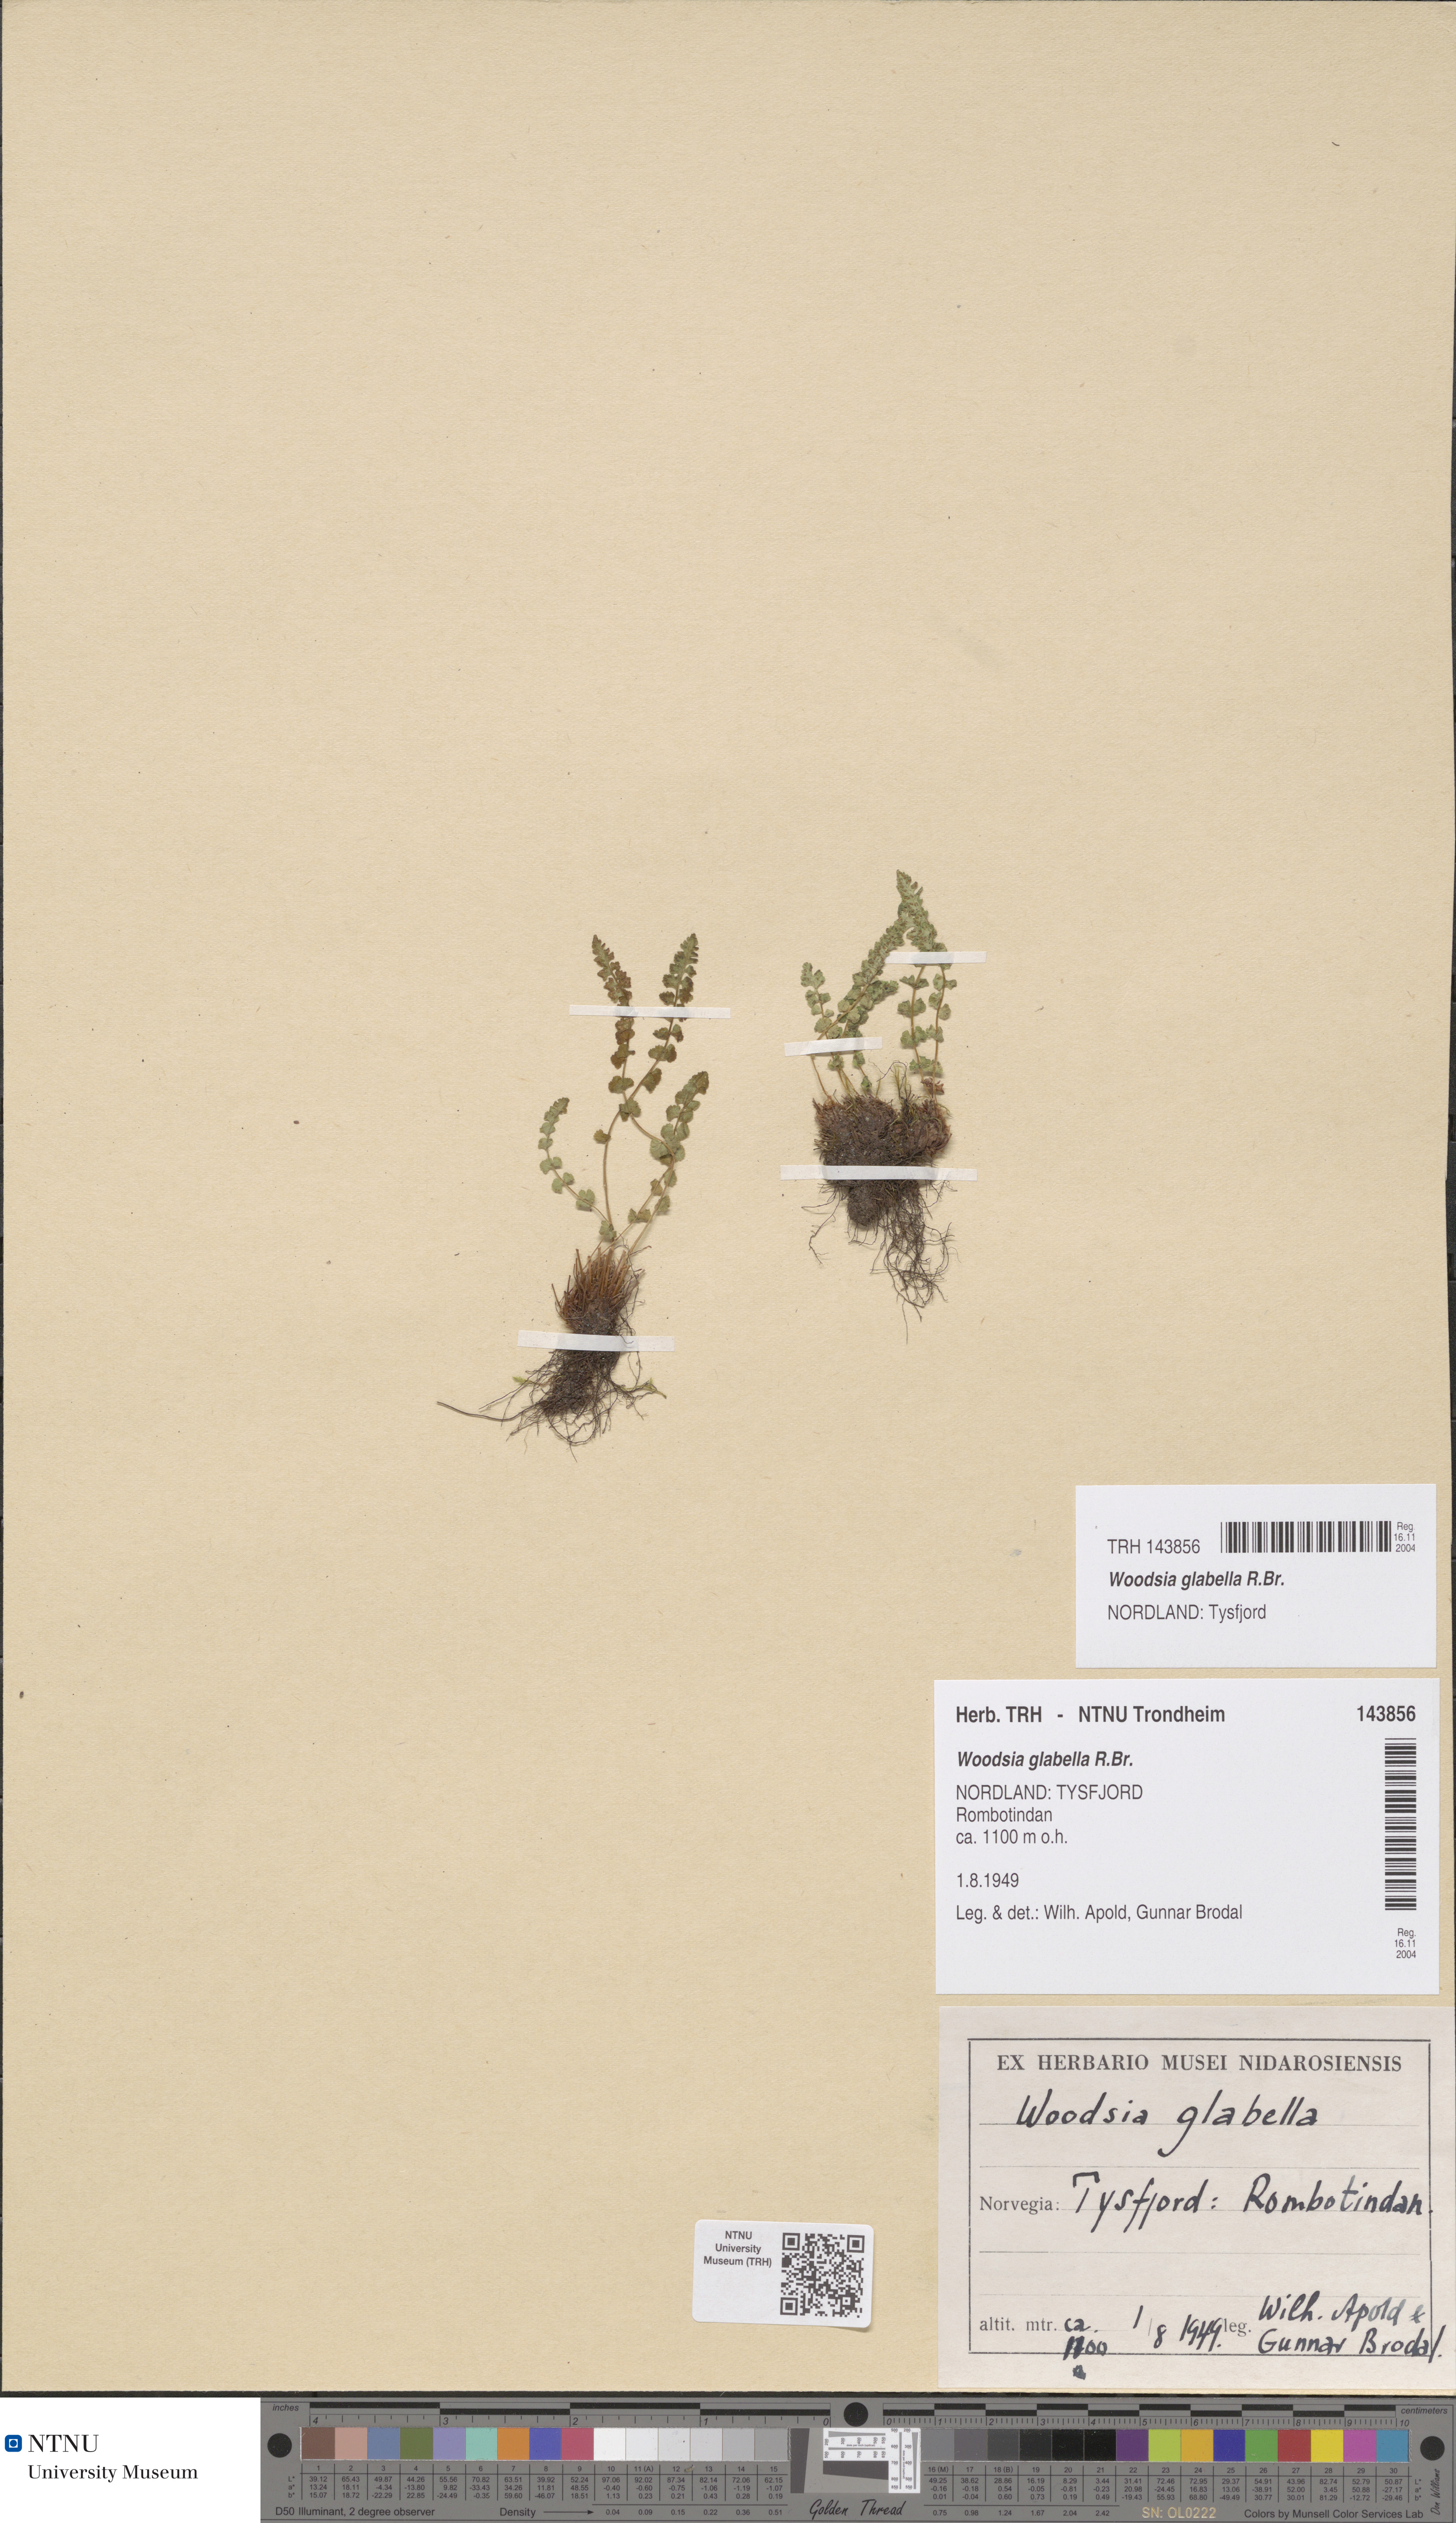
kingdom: Plantae
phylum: Tracheophyta
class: Polypodiopsida
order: Polypodiales
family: Woodsiaceae
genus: Woodsia
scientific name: Woodsia glabella
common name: Smooth woodsia
